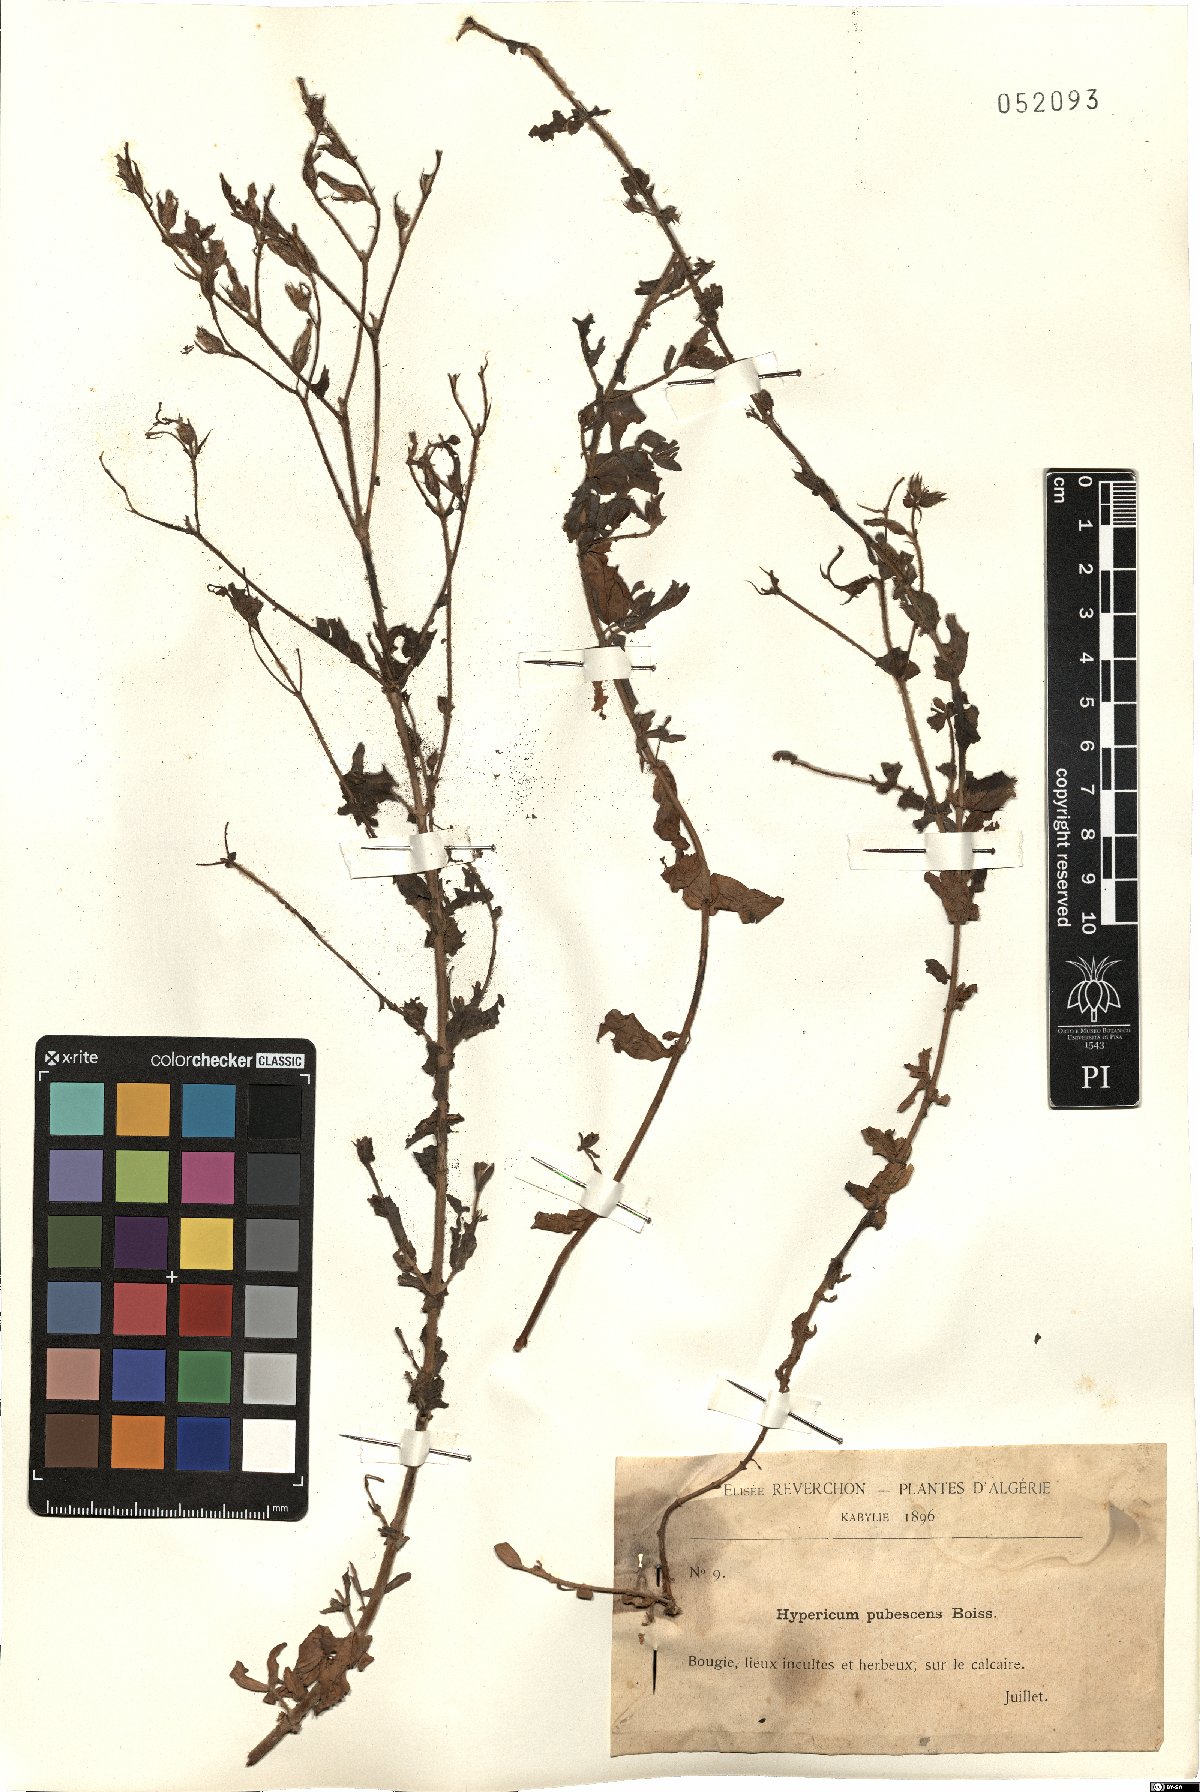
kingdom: Plantae
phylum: Tracheophyta
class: Magnoliopsida
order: Malpighiales
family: Hypericaceae
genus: Hypericum
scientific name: Hypericum pubescens
